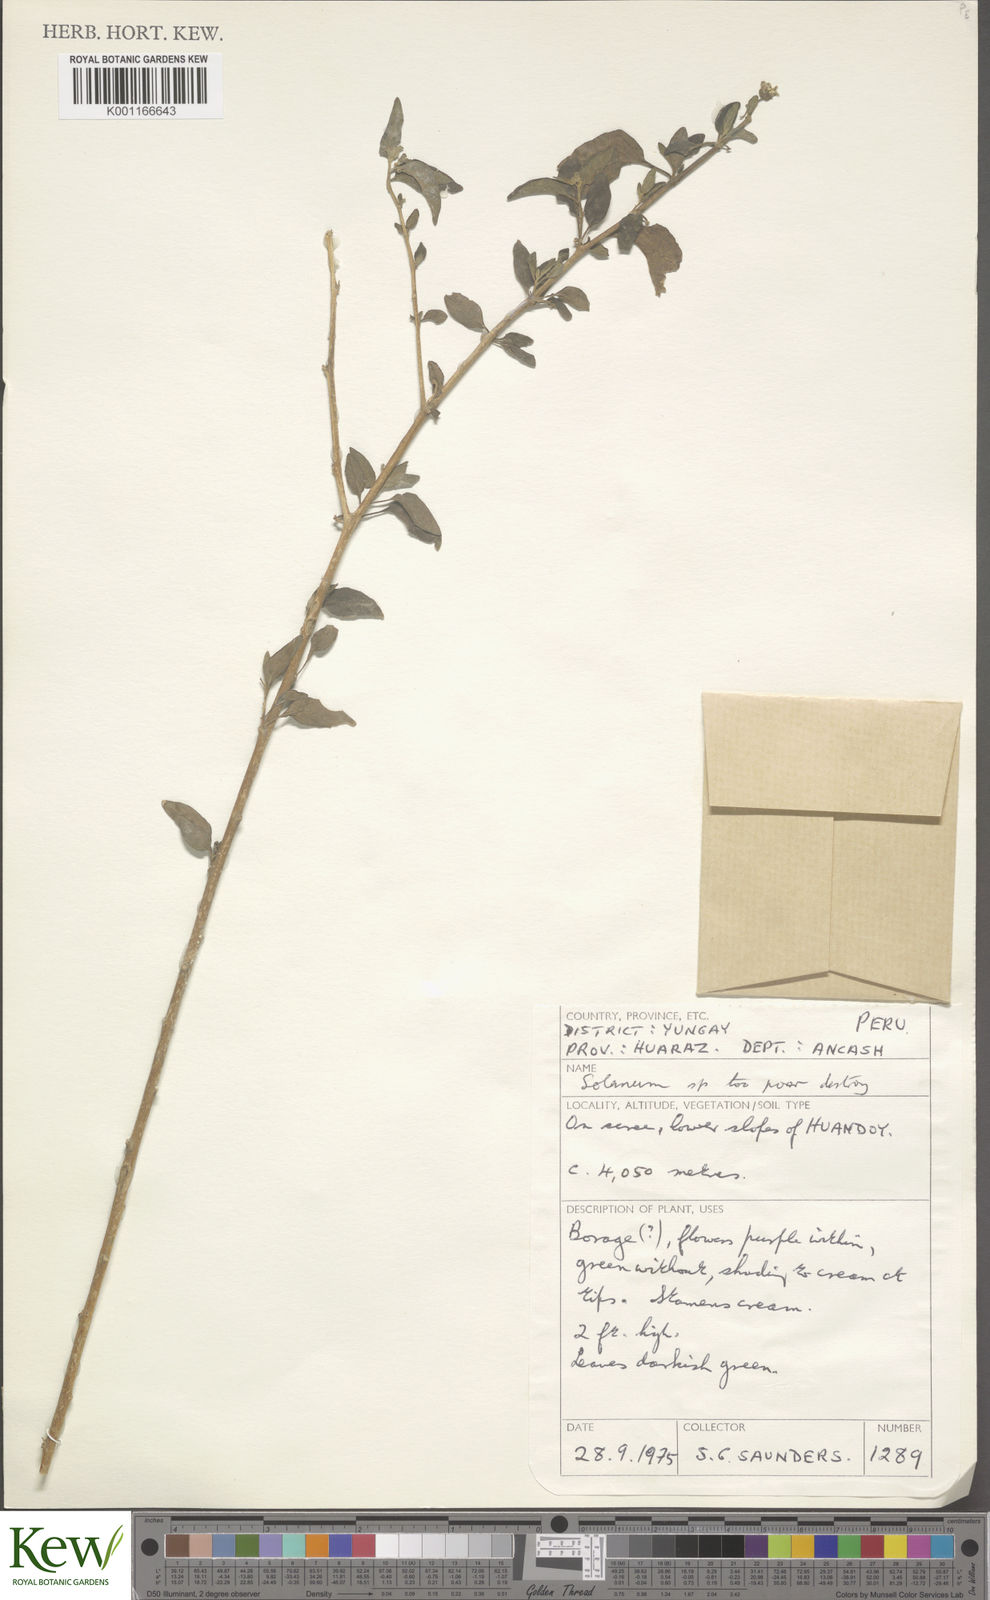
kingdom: Plantae
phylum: Tracheophyta
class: Magnoliopsida
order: Solanales
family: Solanaceae
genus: Solanum
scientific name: Solanum
